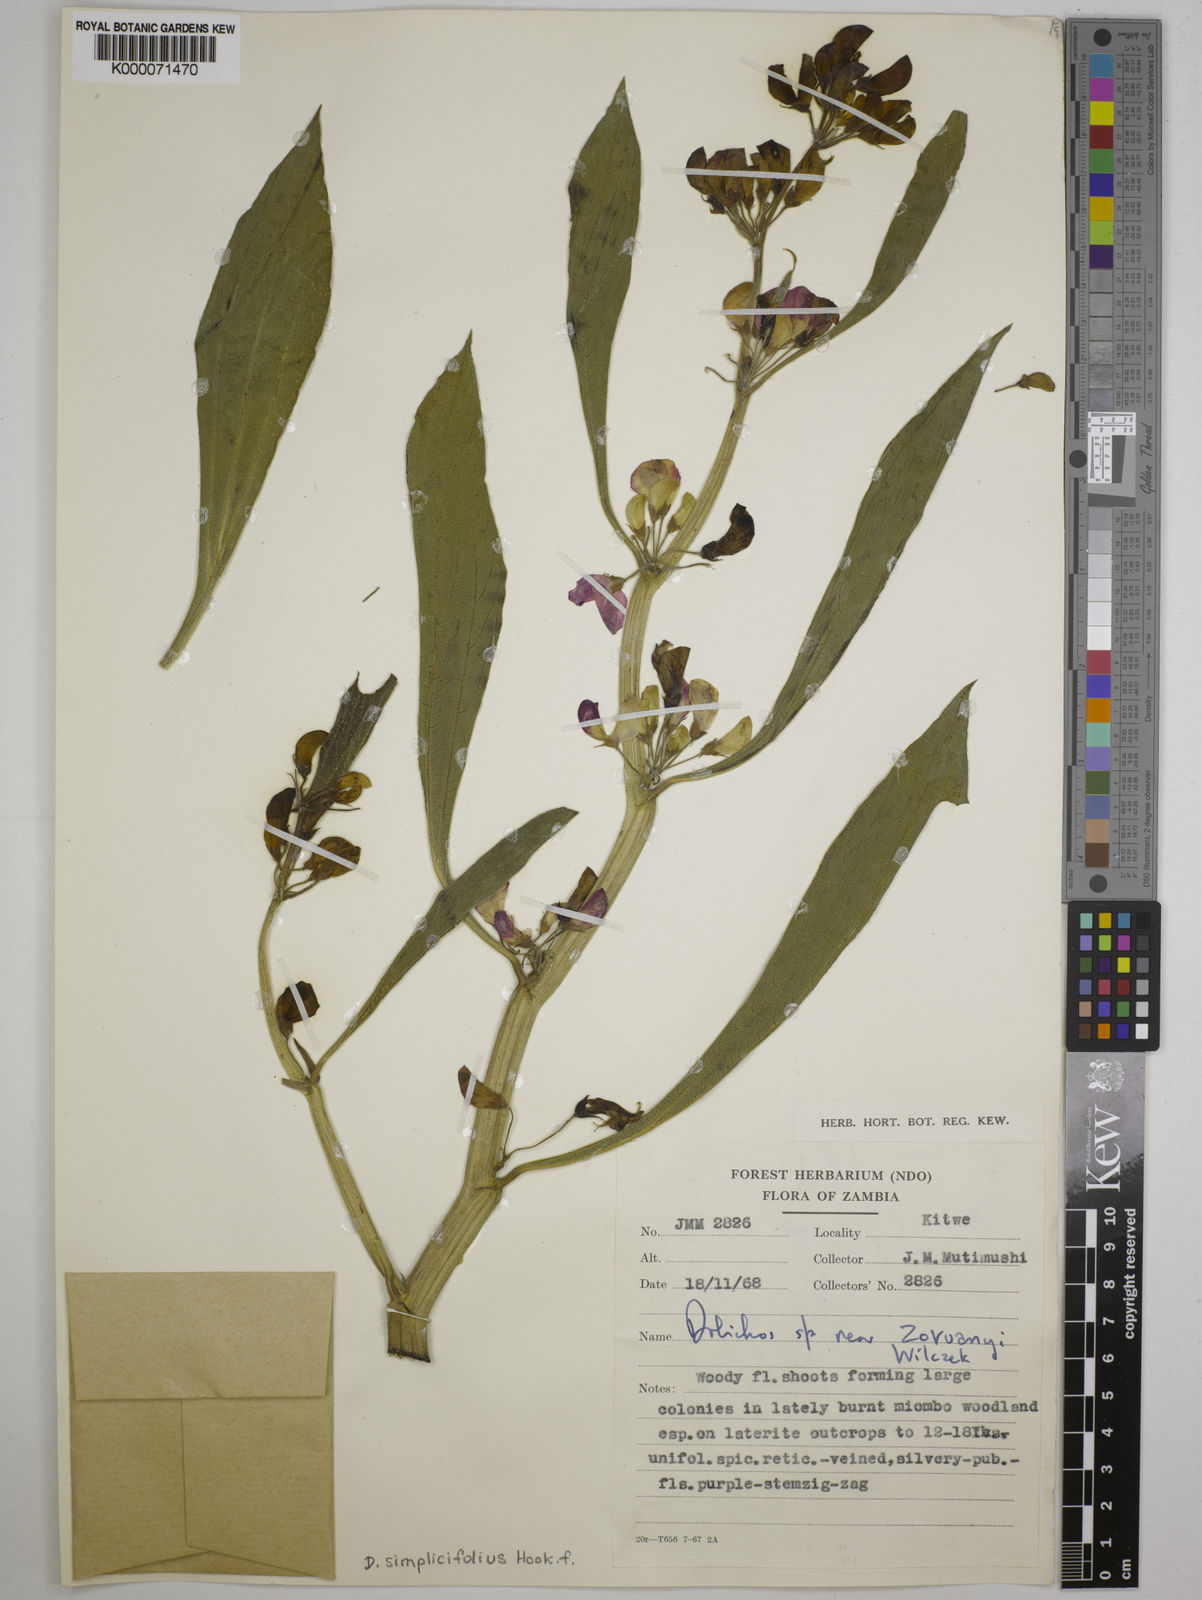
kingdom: Plantae
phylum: Tracheophyta
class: Magnoliopsida
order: Fabales
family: Fabaceae
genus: Dolichos
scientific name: Dolichos simplicifolius
